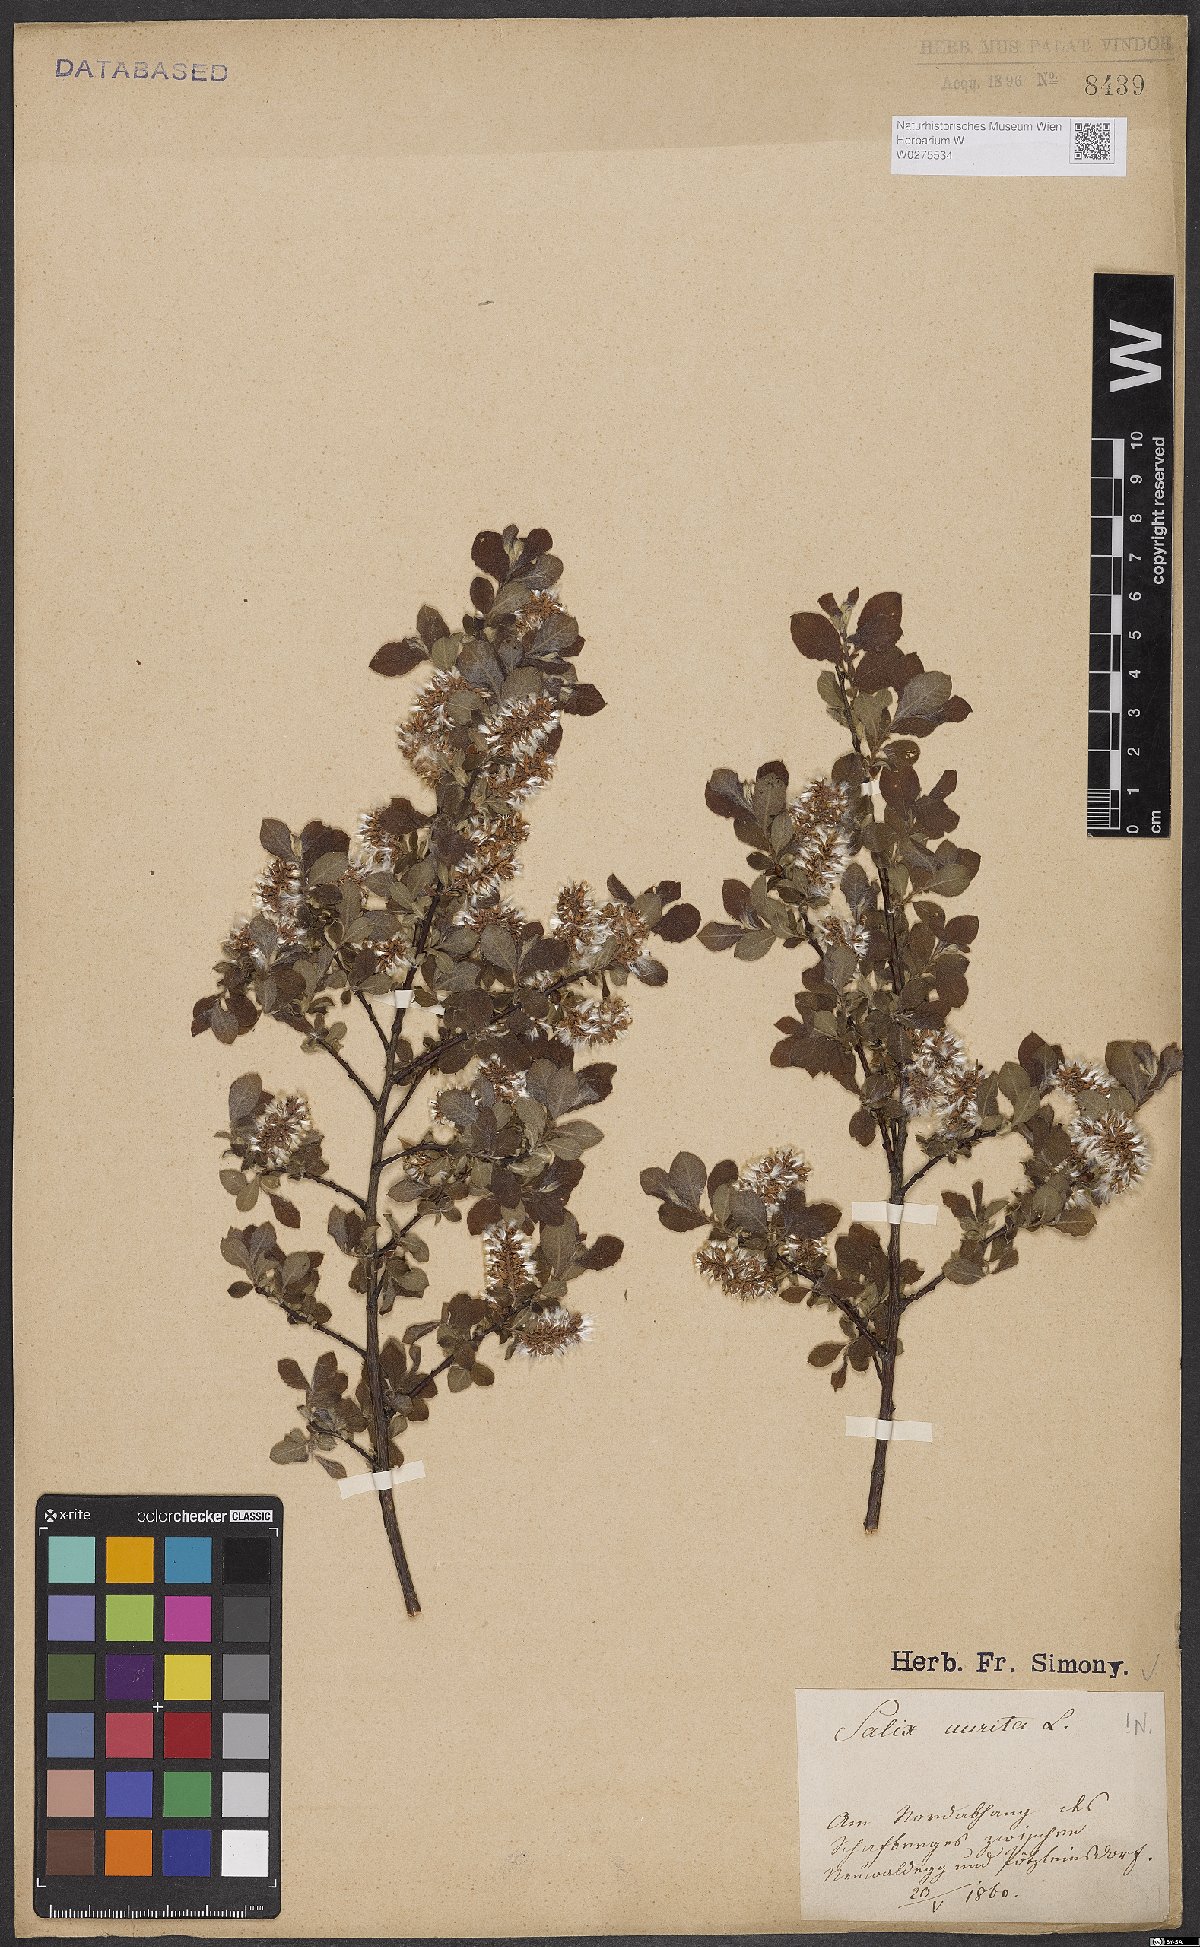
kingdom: Plantae
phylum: Tracheophyta
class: Magnoliopsida
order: Malpighiales
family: Salicaceae
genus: Salix
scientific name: Salix aurita
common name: Eared willow
